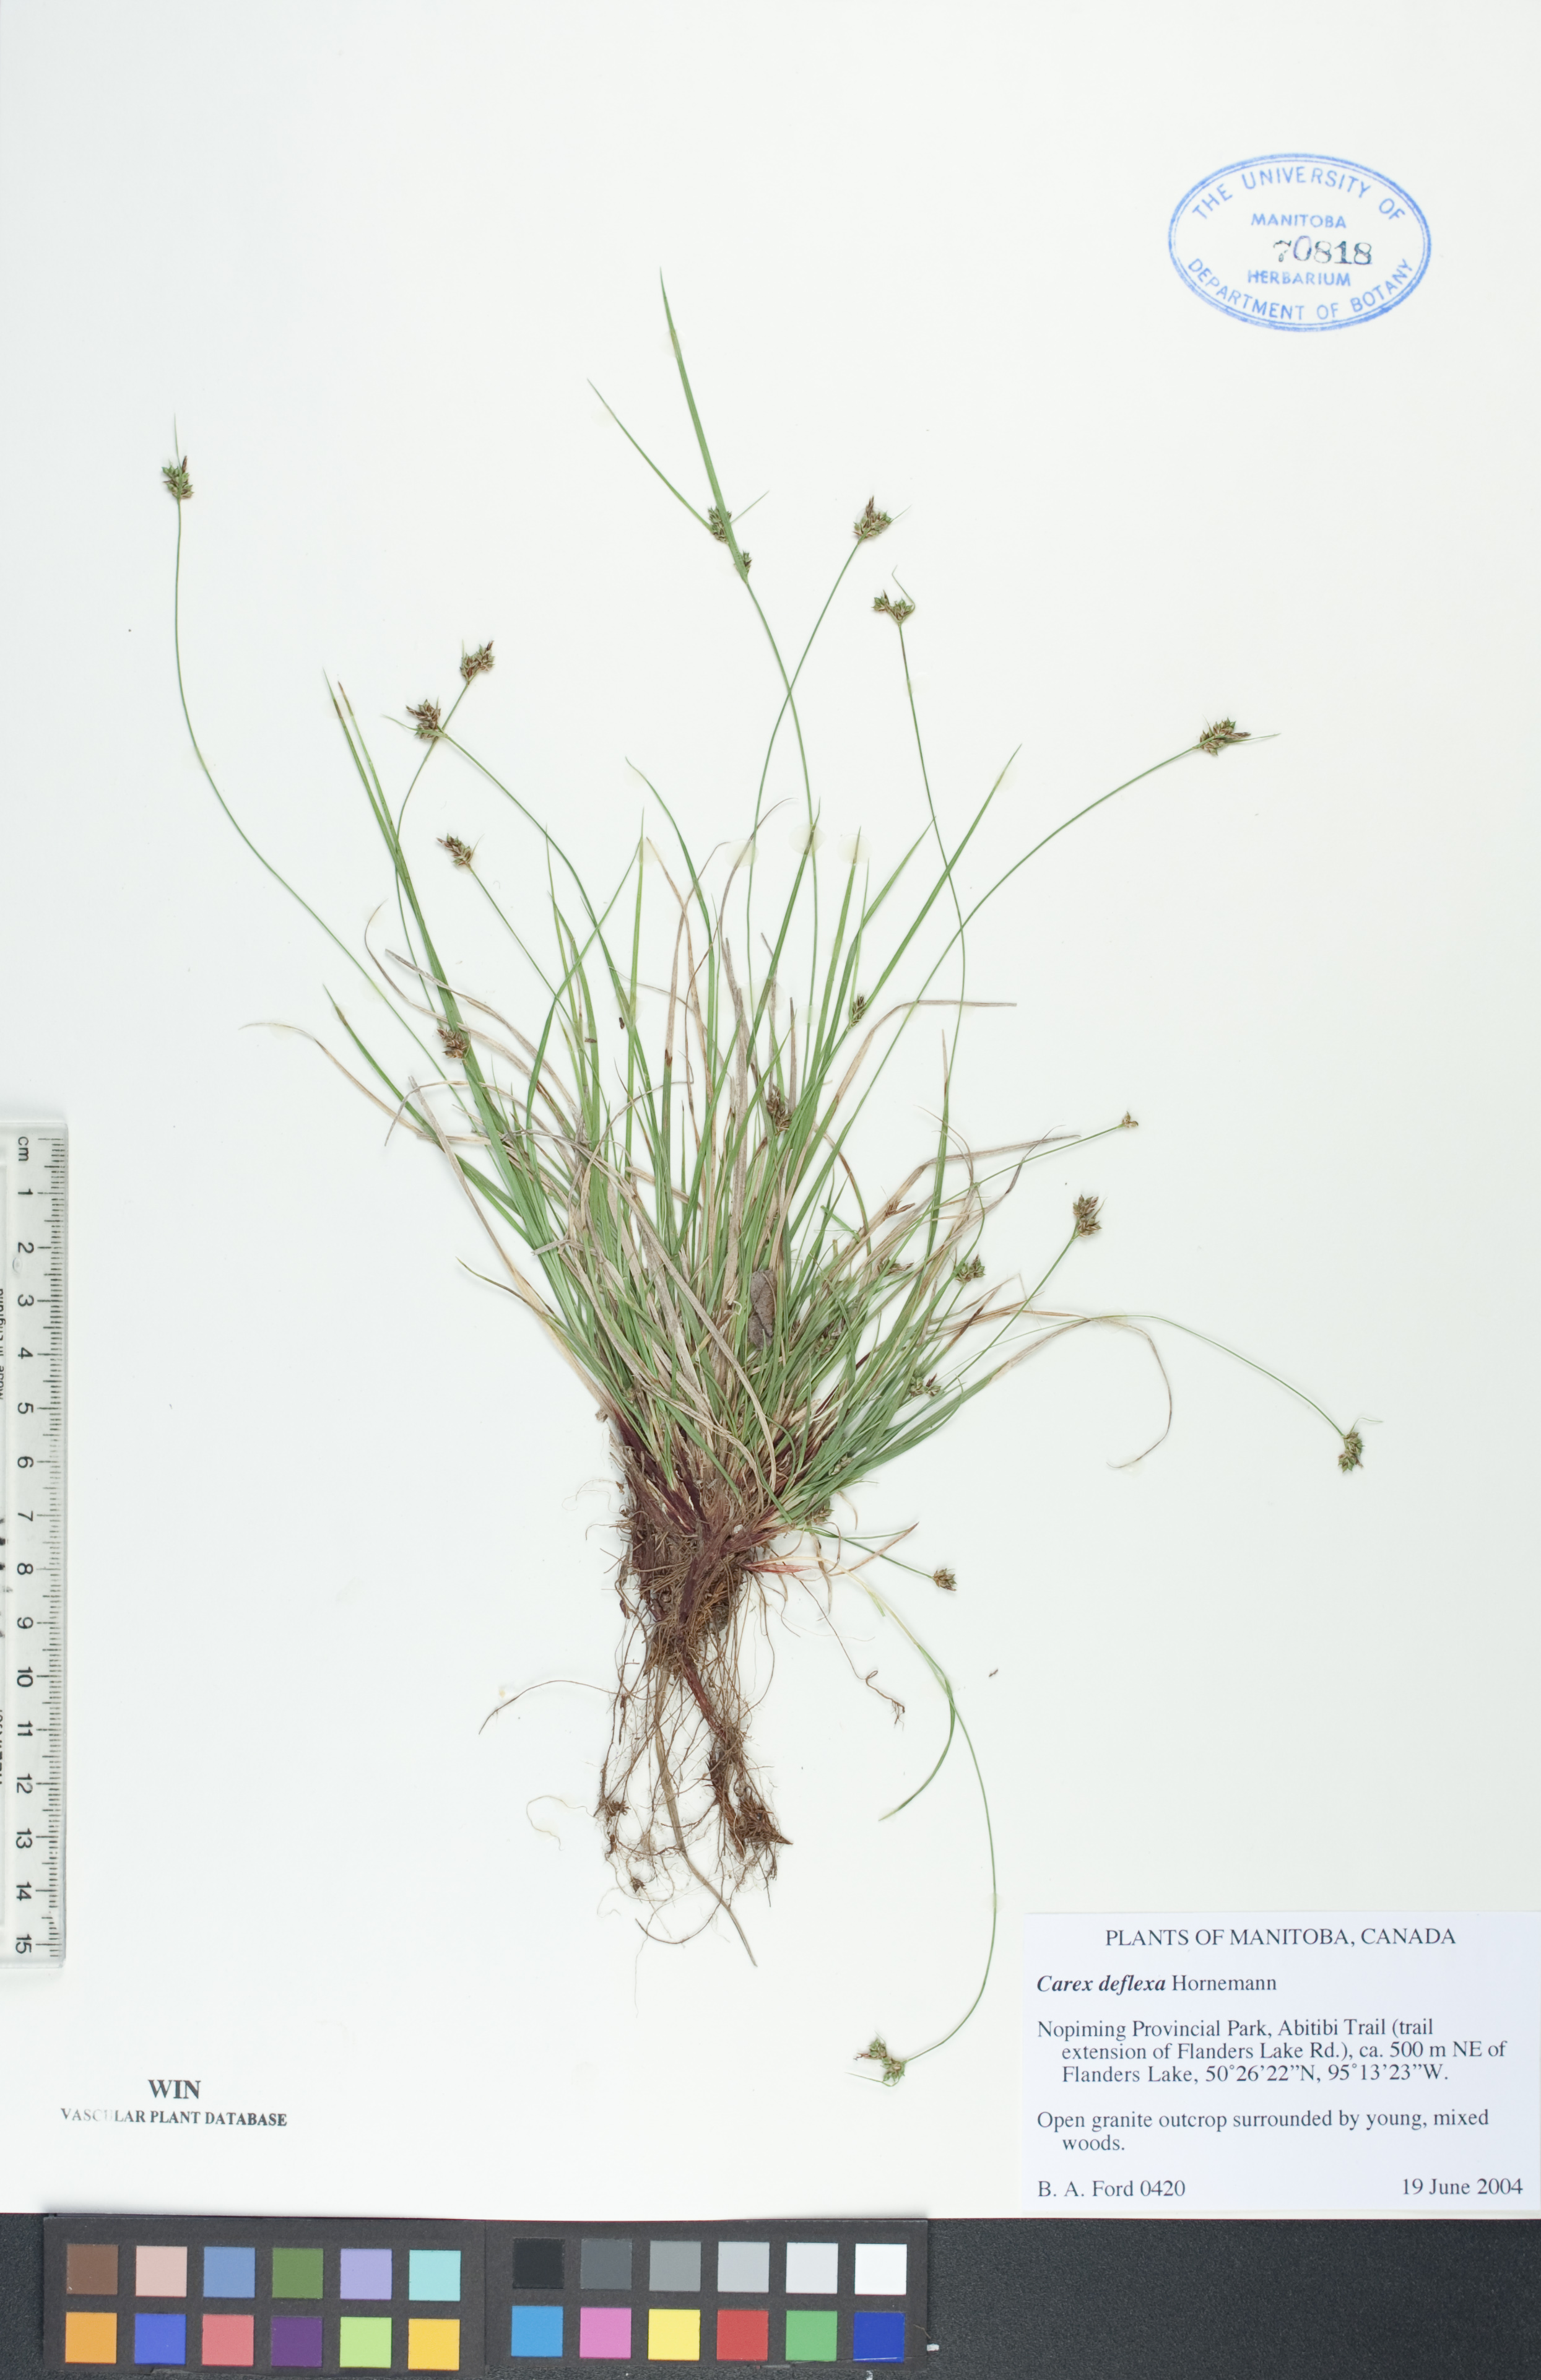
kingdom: Plantae
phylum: Tracheophyta
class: Liliopsida
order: Poales
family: Cyperaceae
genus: Carex
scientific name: Carex deflexa
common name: Bent northern sedge
